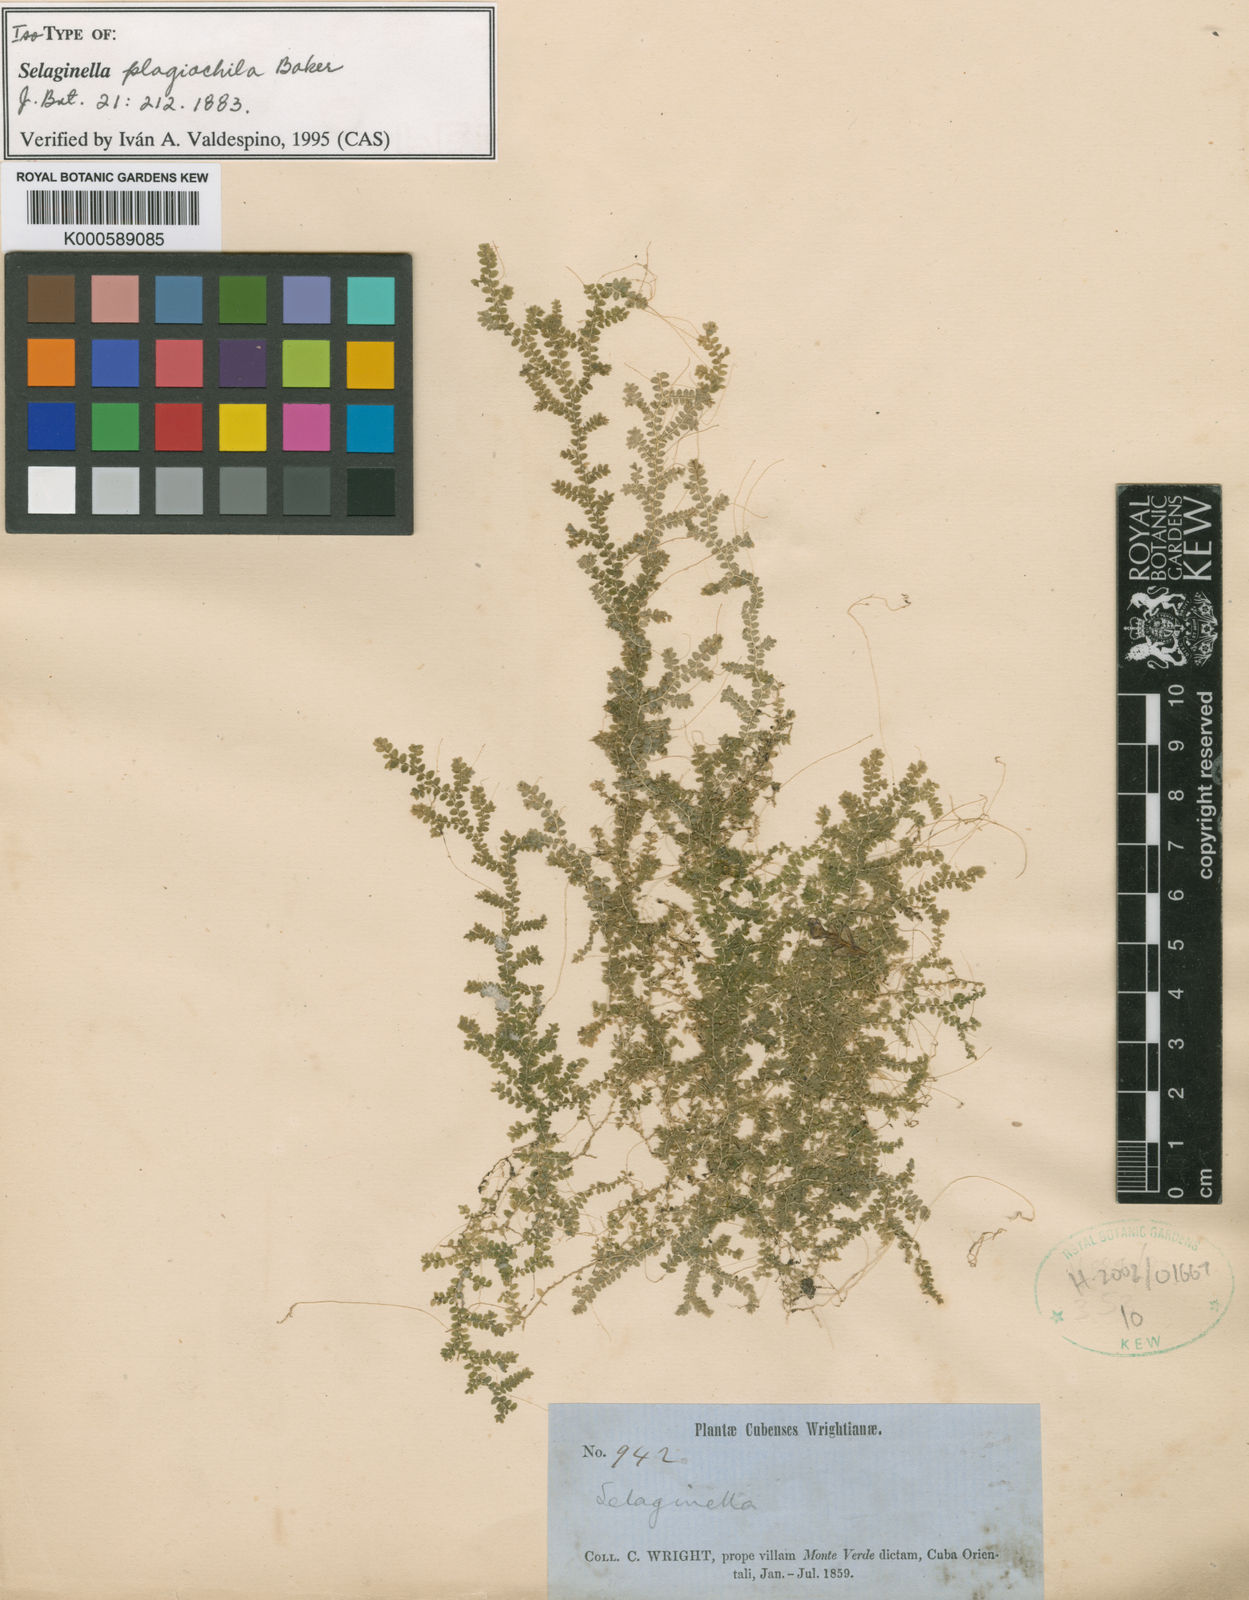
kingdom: Plantae
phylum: Tracheophyta
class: Lycopodiopsida
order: Selaginellales
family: Selaginellaceae
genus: Selaginella
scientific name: Selaginella plagiochila
